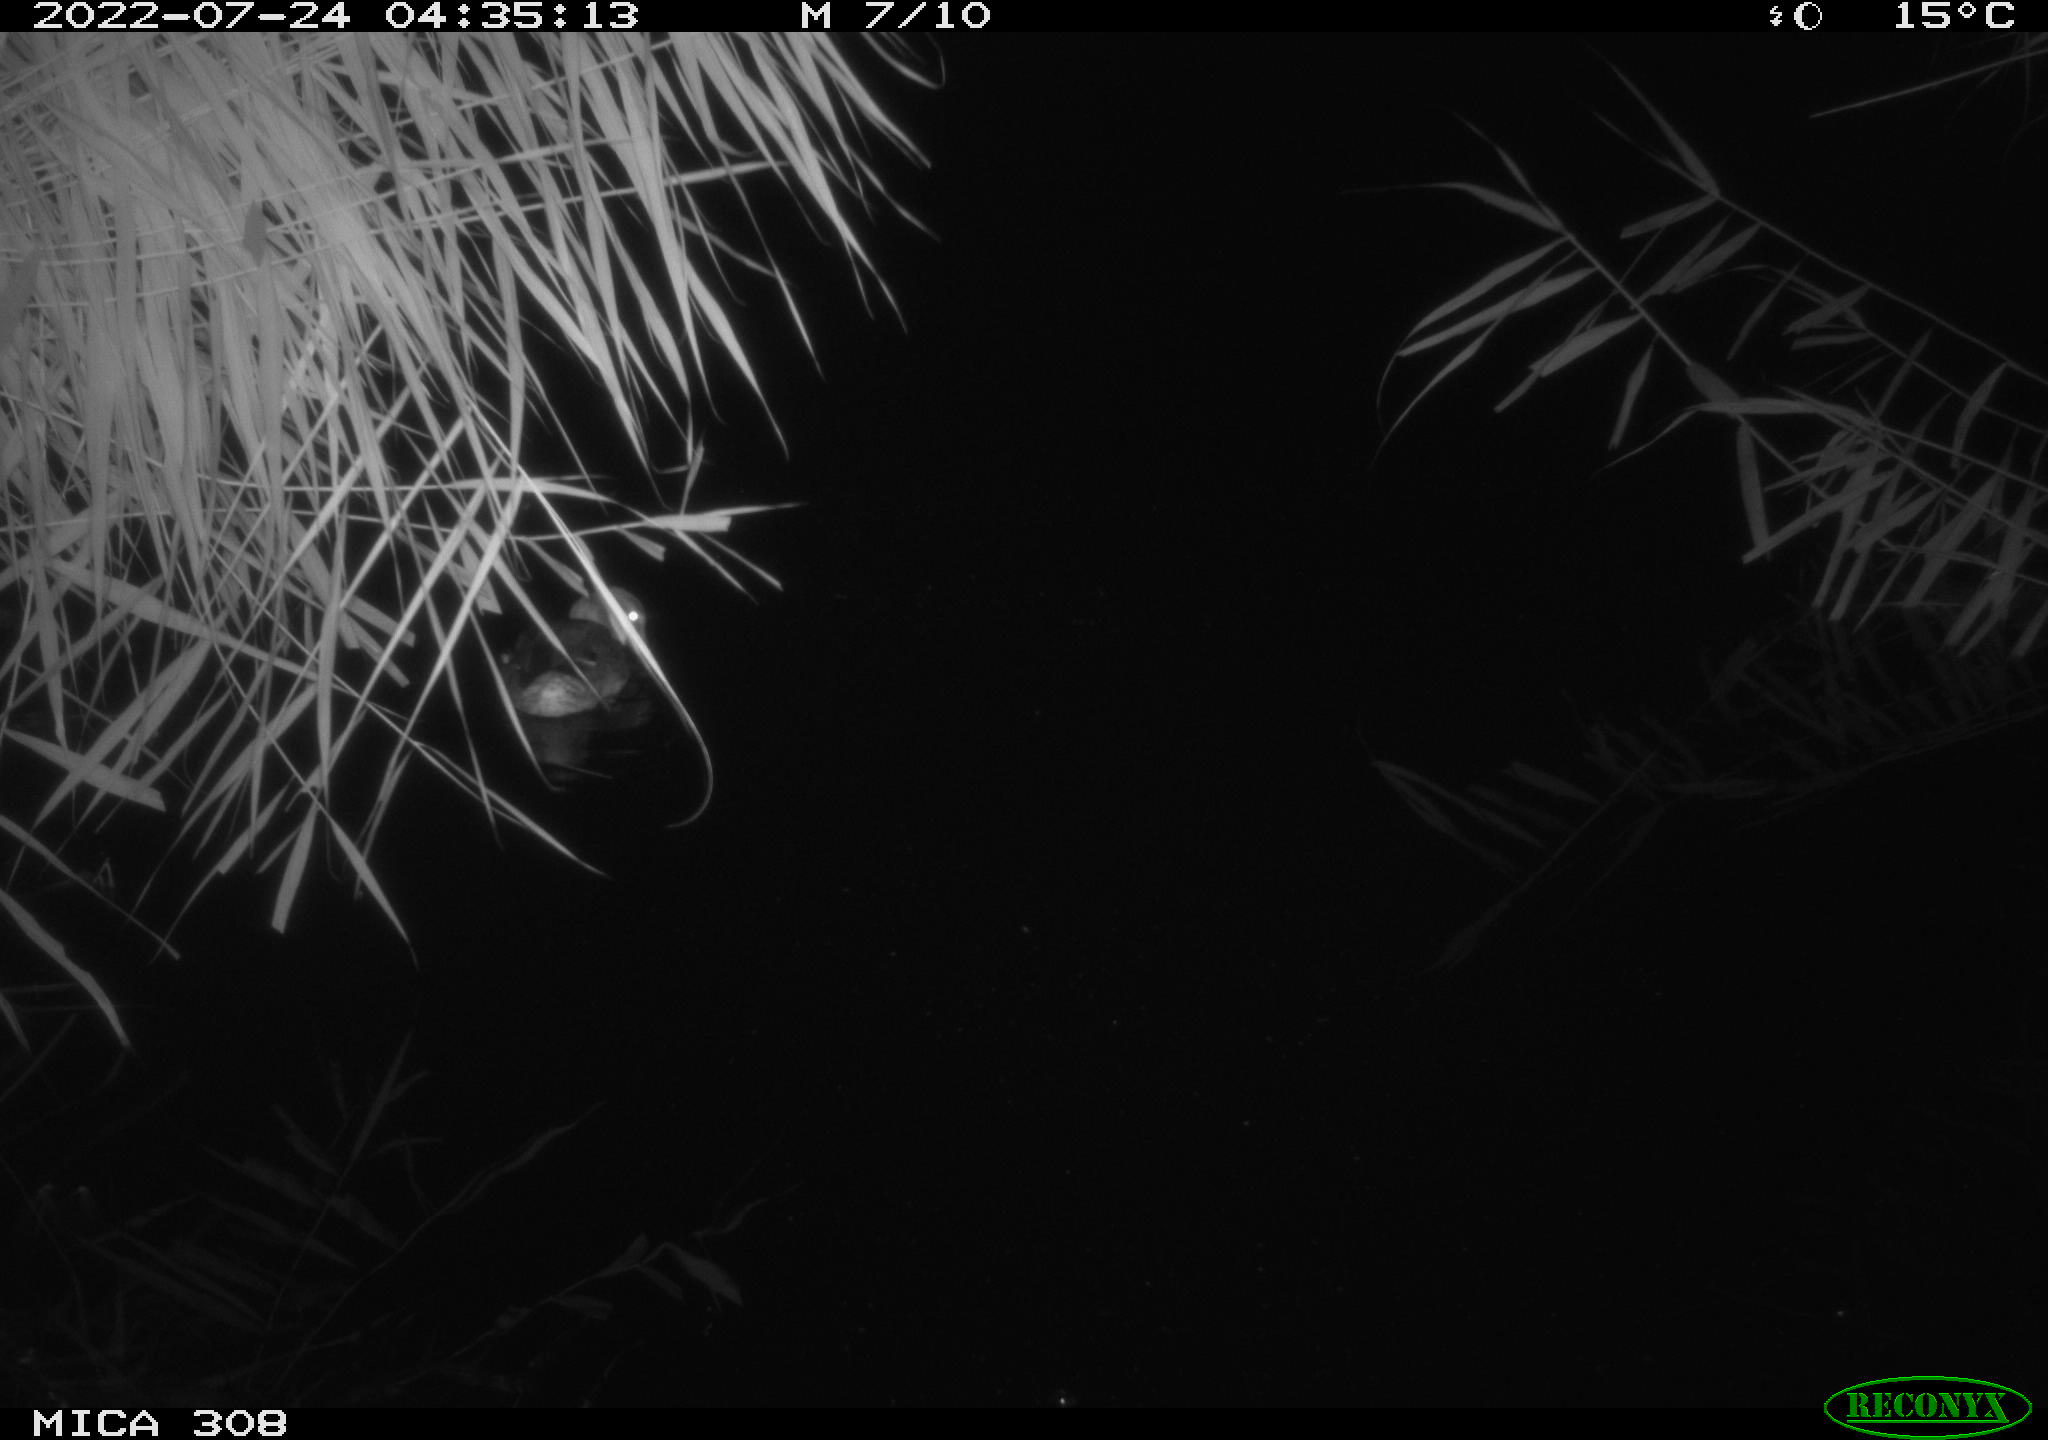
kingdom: Animalia
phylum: Chordata
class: Aves
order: Anseriformes
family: Anatidae
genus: Anas
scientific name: Anas platyrhynchos
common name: Mallard
